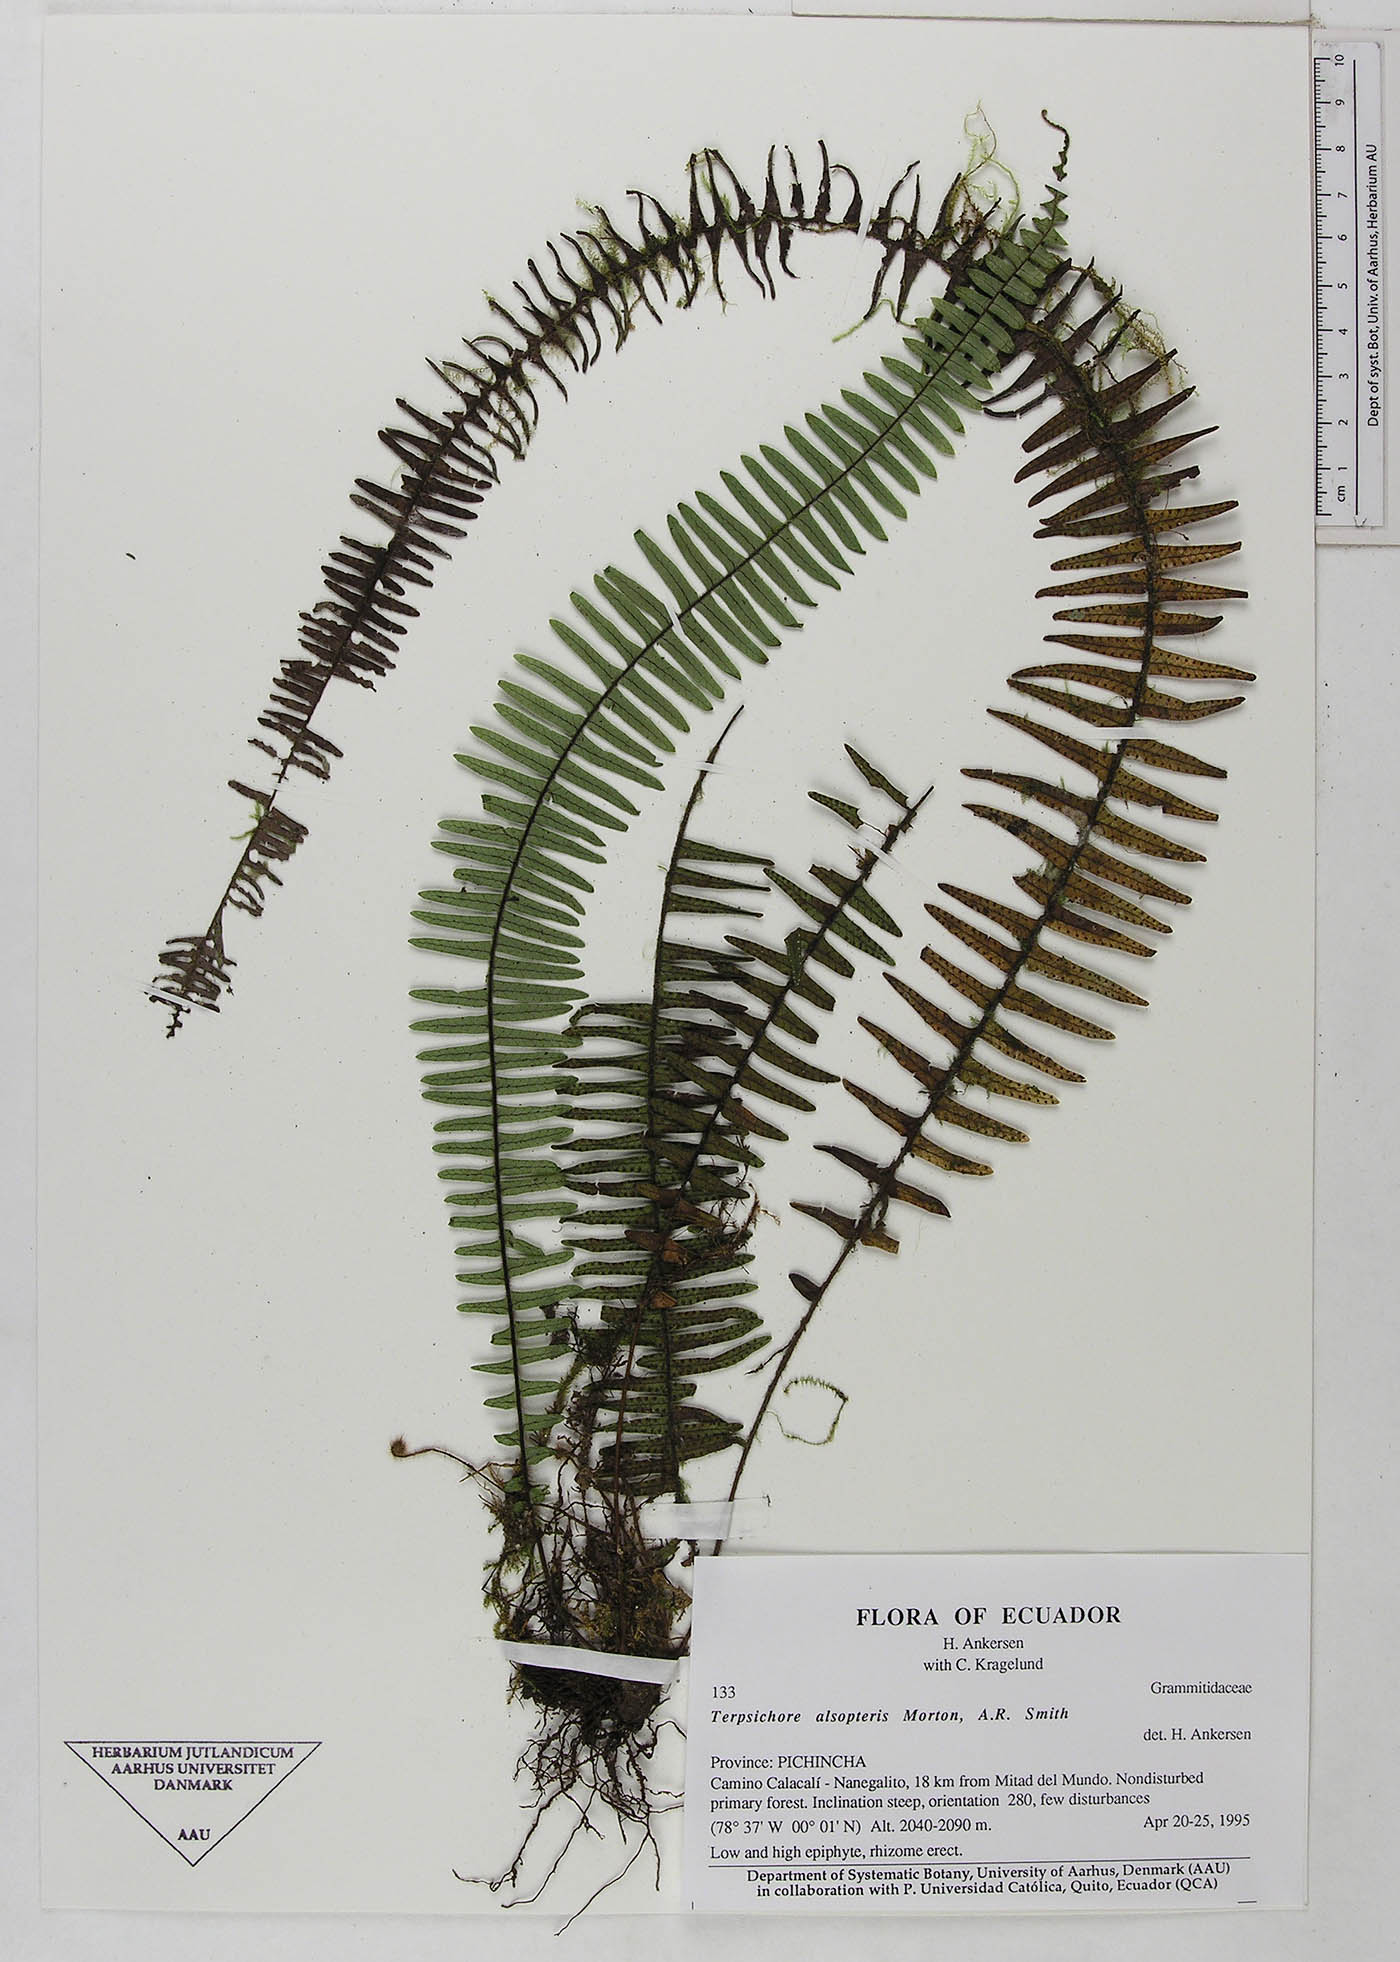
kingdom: Plantae
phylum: Tracheophyta
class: Polypodiopsida
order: Polypodiales
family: Polypodiaceae
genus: Mycopteris
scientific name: Mycopteris alsopteris
